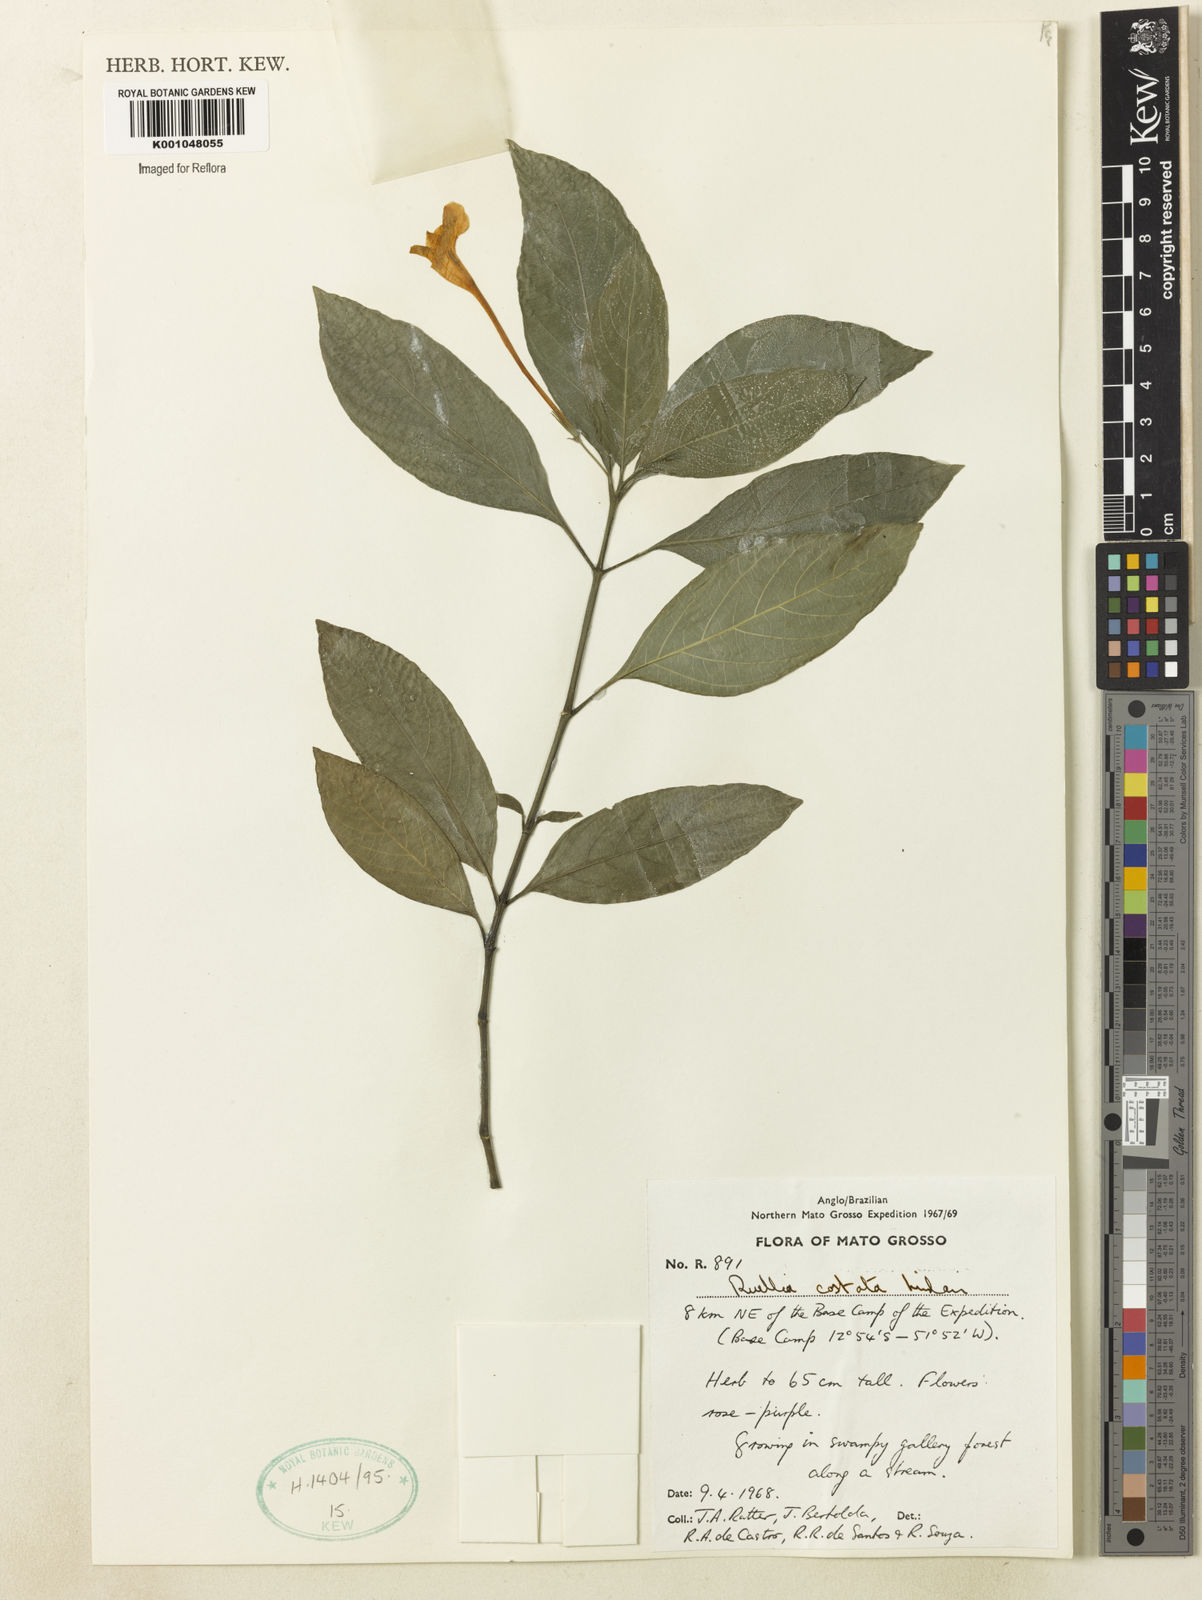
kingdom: Plantae
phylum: Tracheophyta
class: Magnoliopsida
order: Lamiales
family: Acanthaceae
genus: Ruellia
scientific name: Ruellia costata
